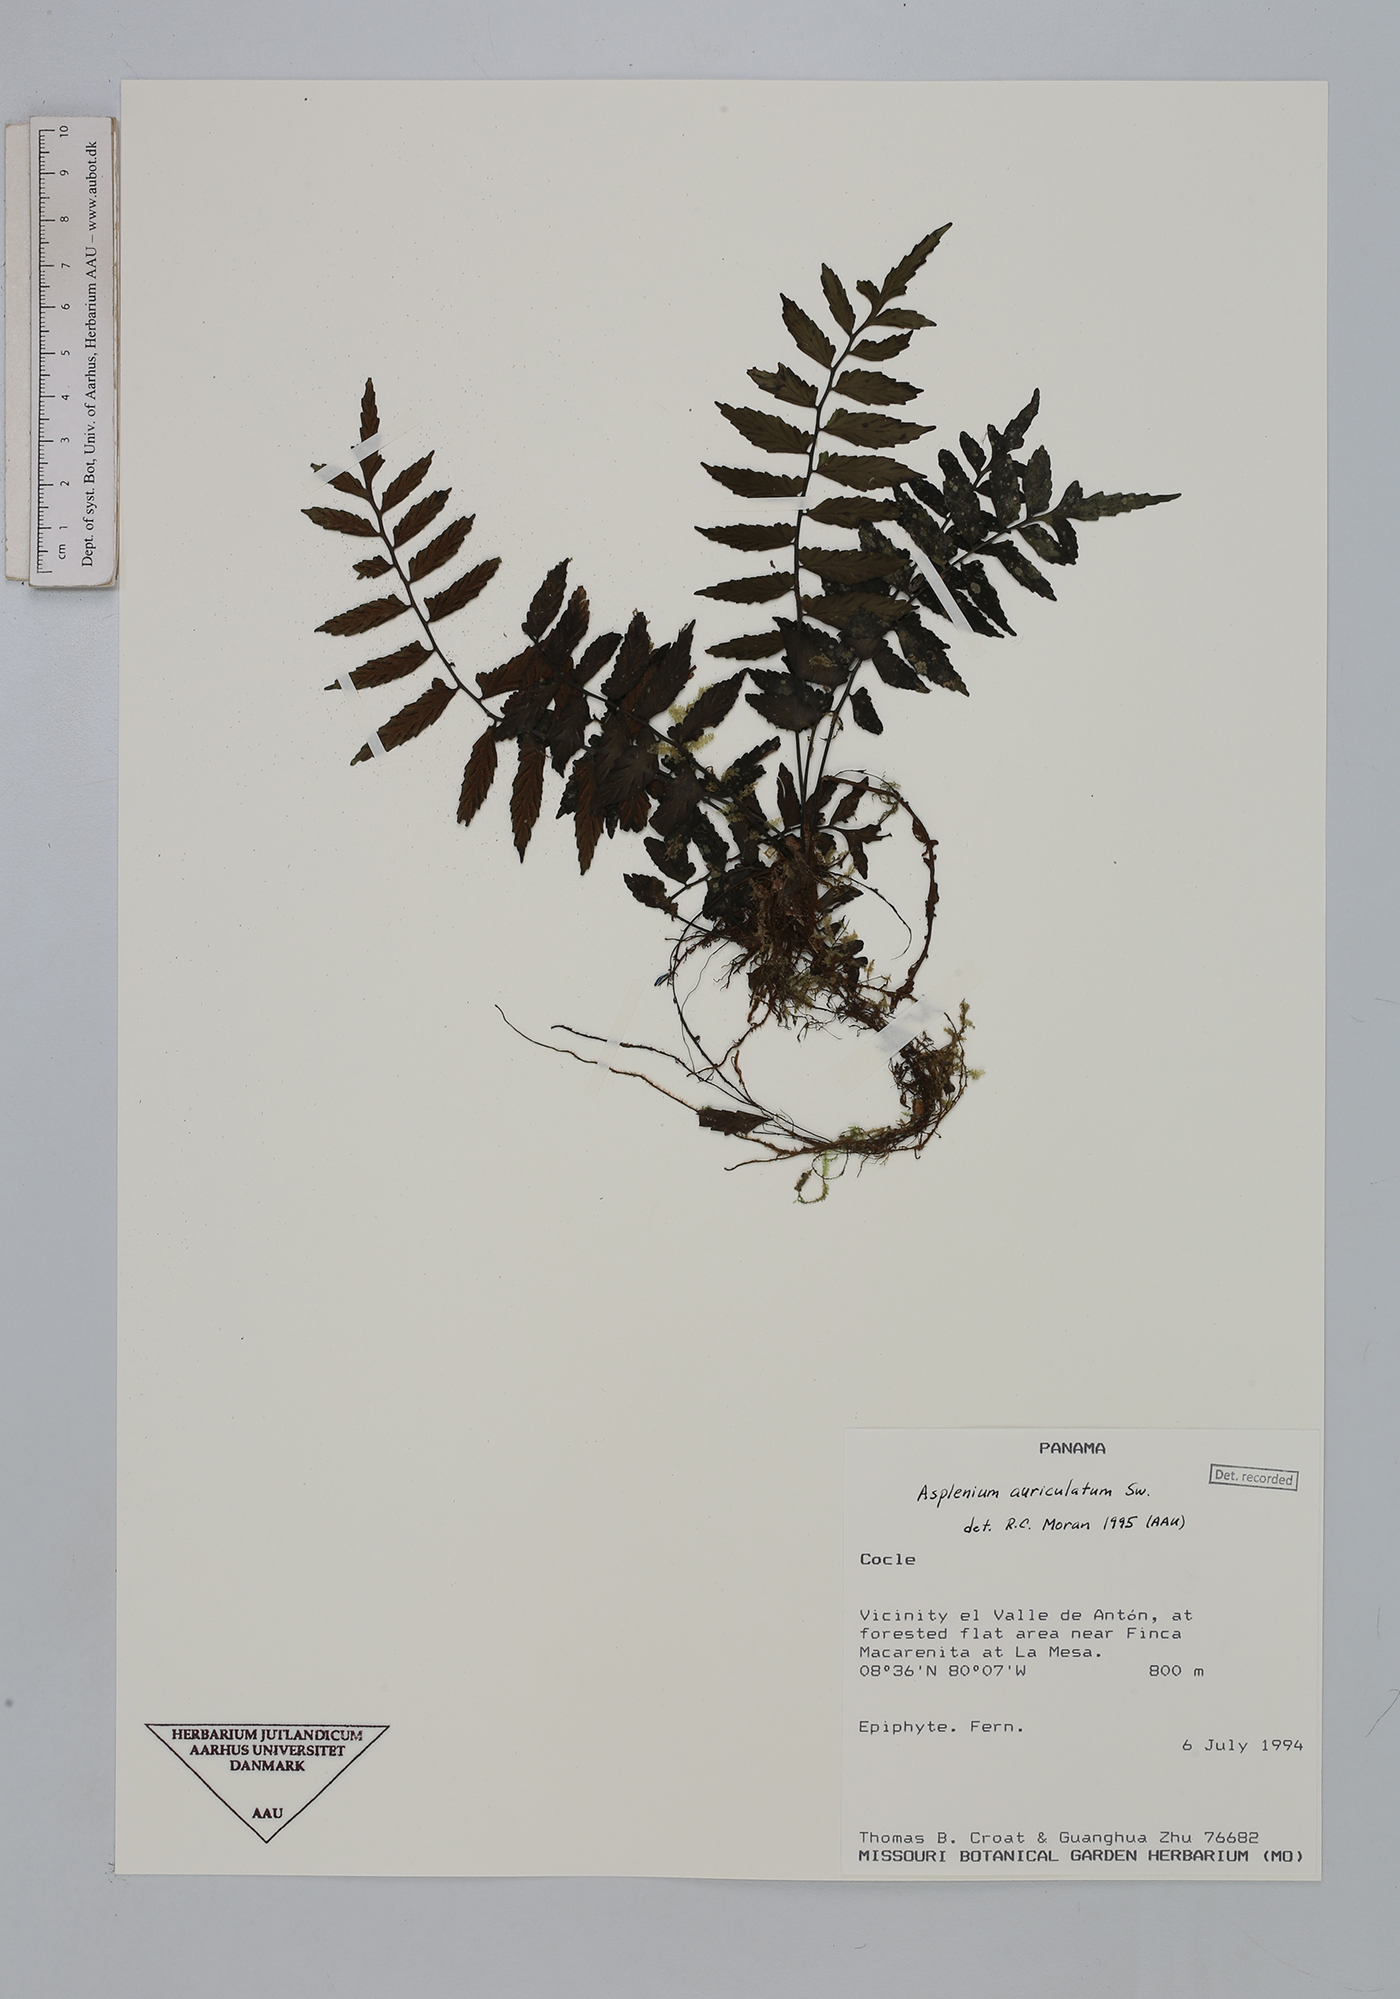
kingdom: Plantae
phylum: Tracheophyta
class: Polypodiopsida
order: Polypodiales
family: Aspleniaceae
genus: Asplenium
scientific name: Asplenium auriculatum
